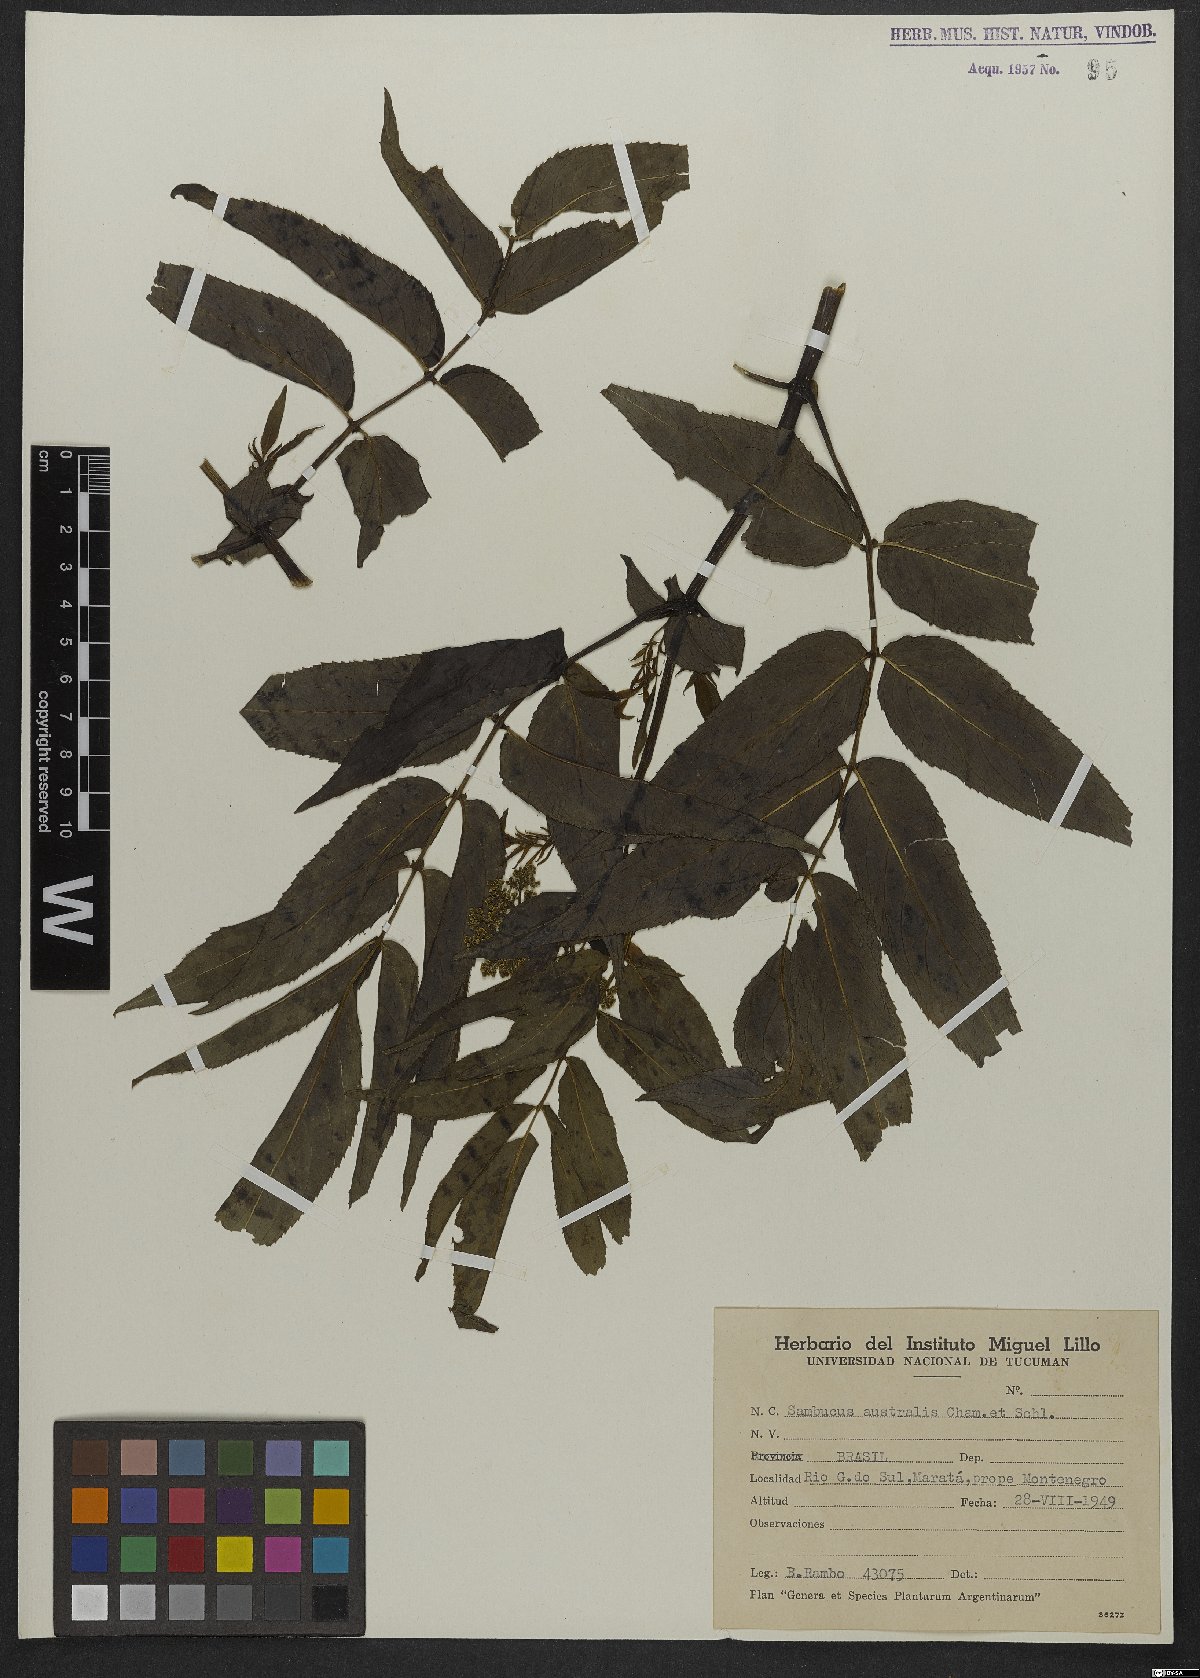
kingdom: Plantae
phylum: Tracheophyta
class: Magnoliopsida
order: Dipsacales
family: Viburnaceae
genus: Sambucus
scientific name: Sambucus australis
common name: Southern elder
